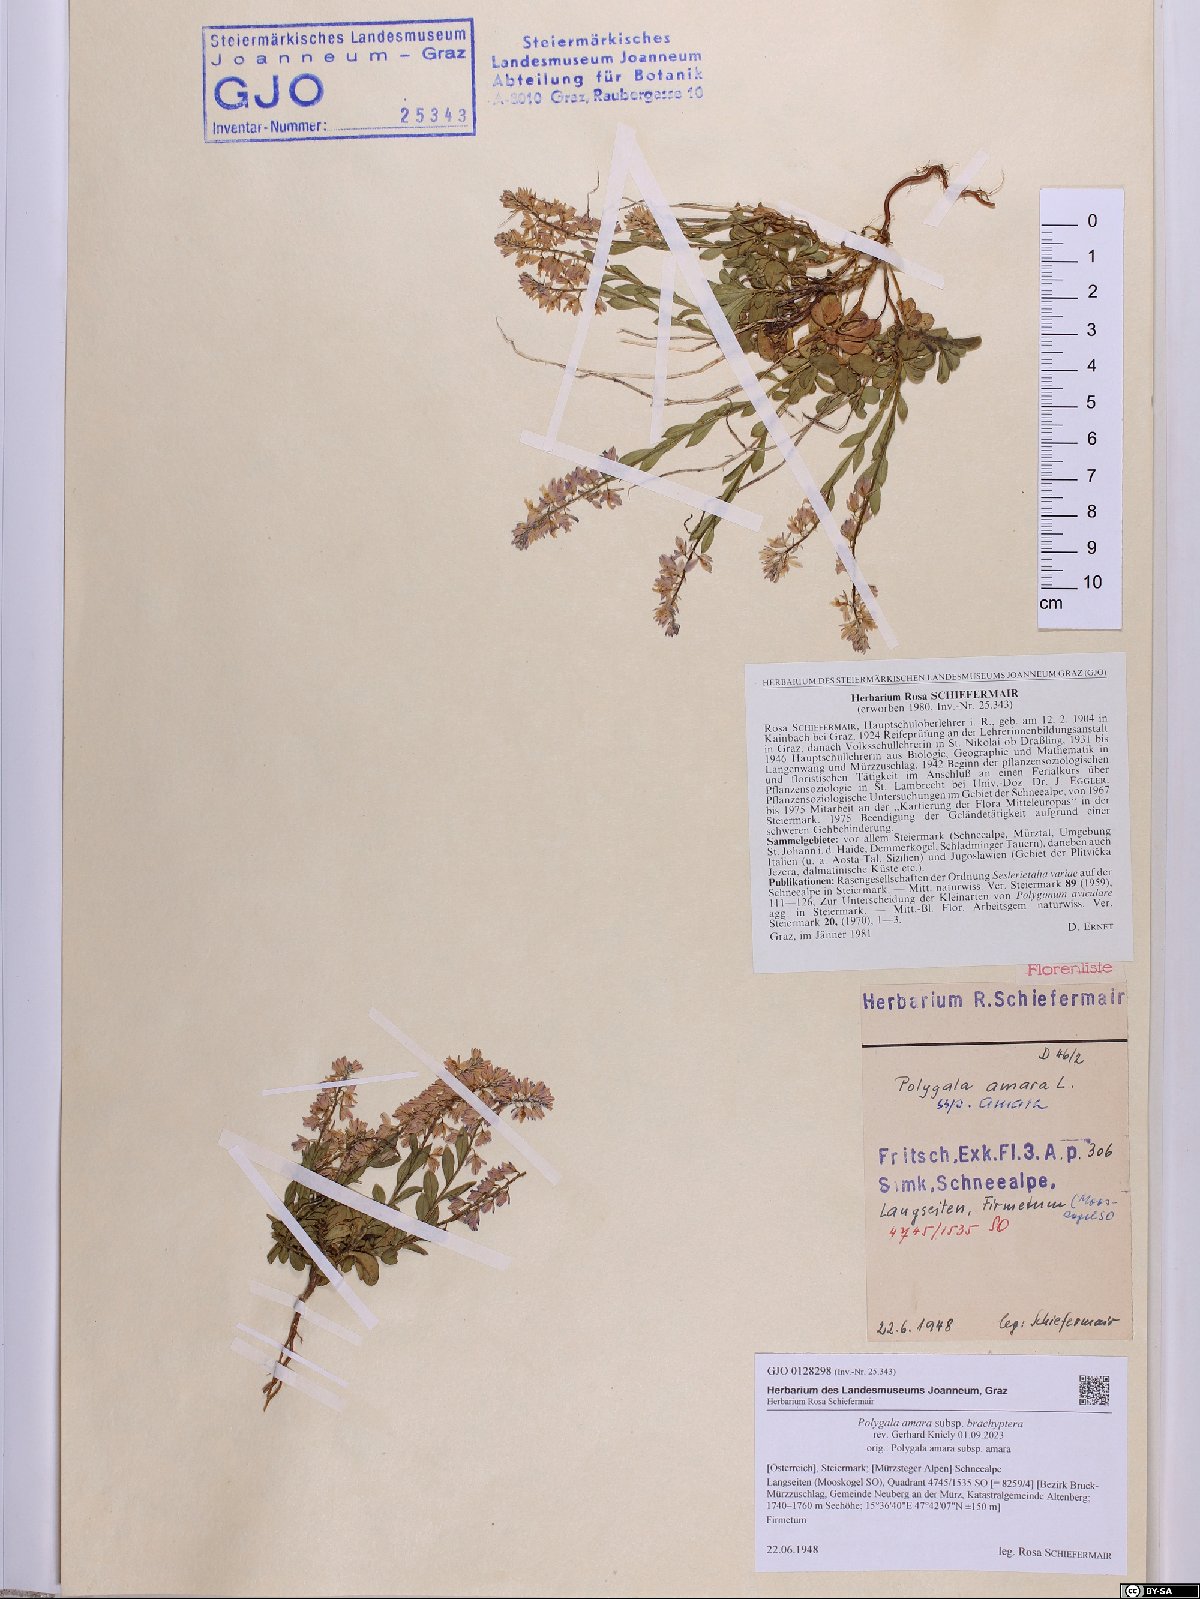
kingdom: Plantae
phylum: Tracheophyta
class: Magnoliopsida
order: Fabales
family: Polygalaceae
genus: Polygala
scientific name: Polygala amara
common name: Milkwort
